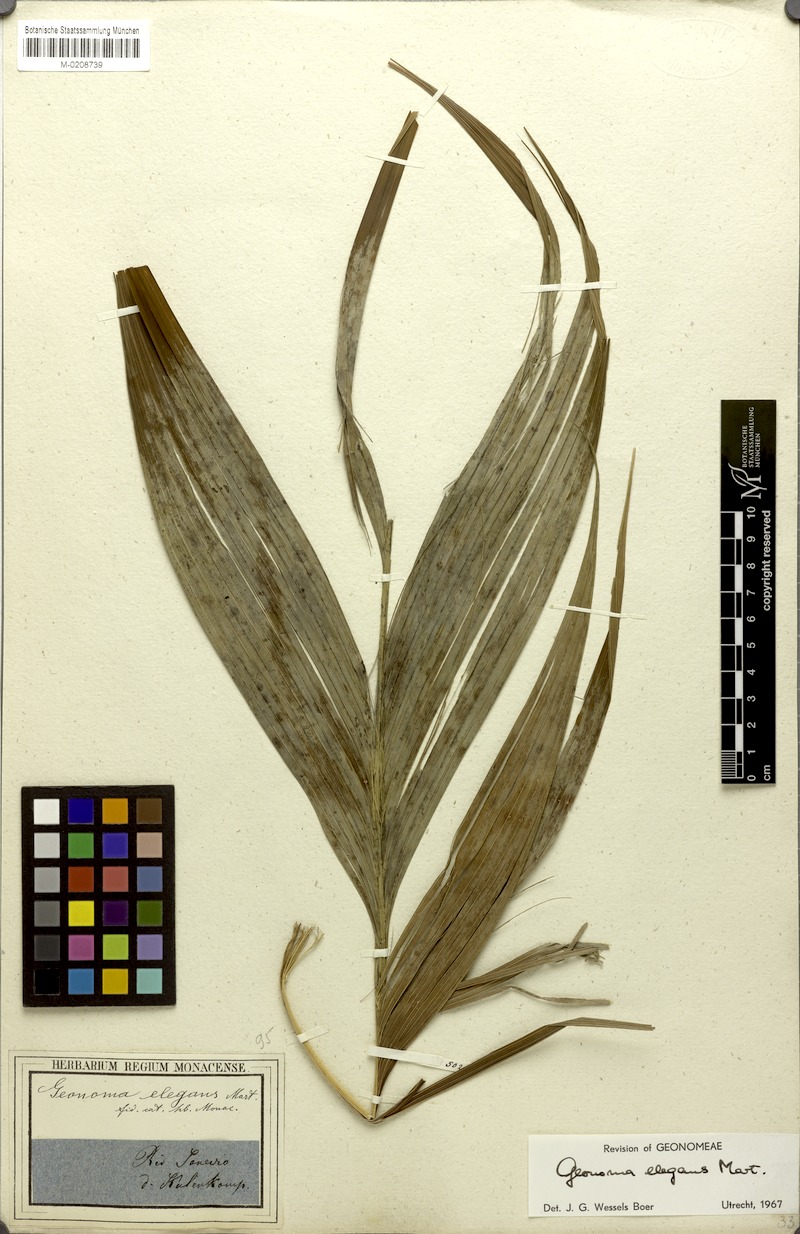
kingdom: Plantae
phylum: Tracheophyta
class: Liliopsida
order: Arecales
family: Arecaceae
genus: Geonoma
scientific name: Geonoma elegans
